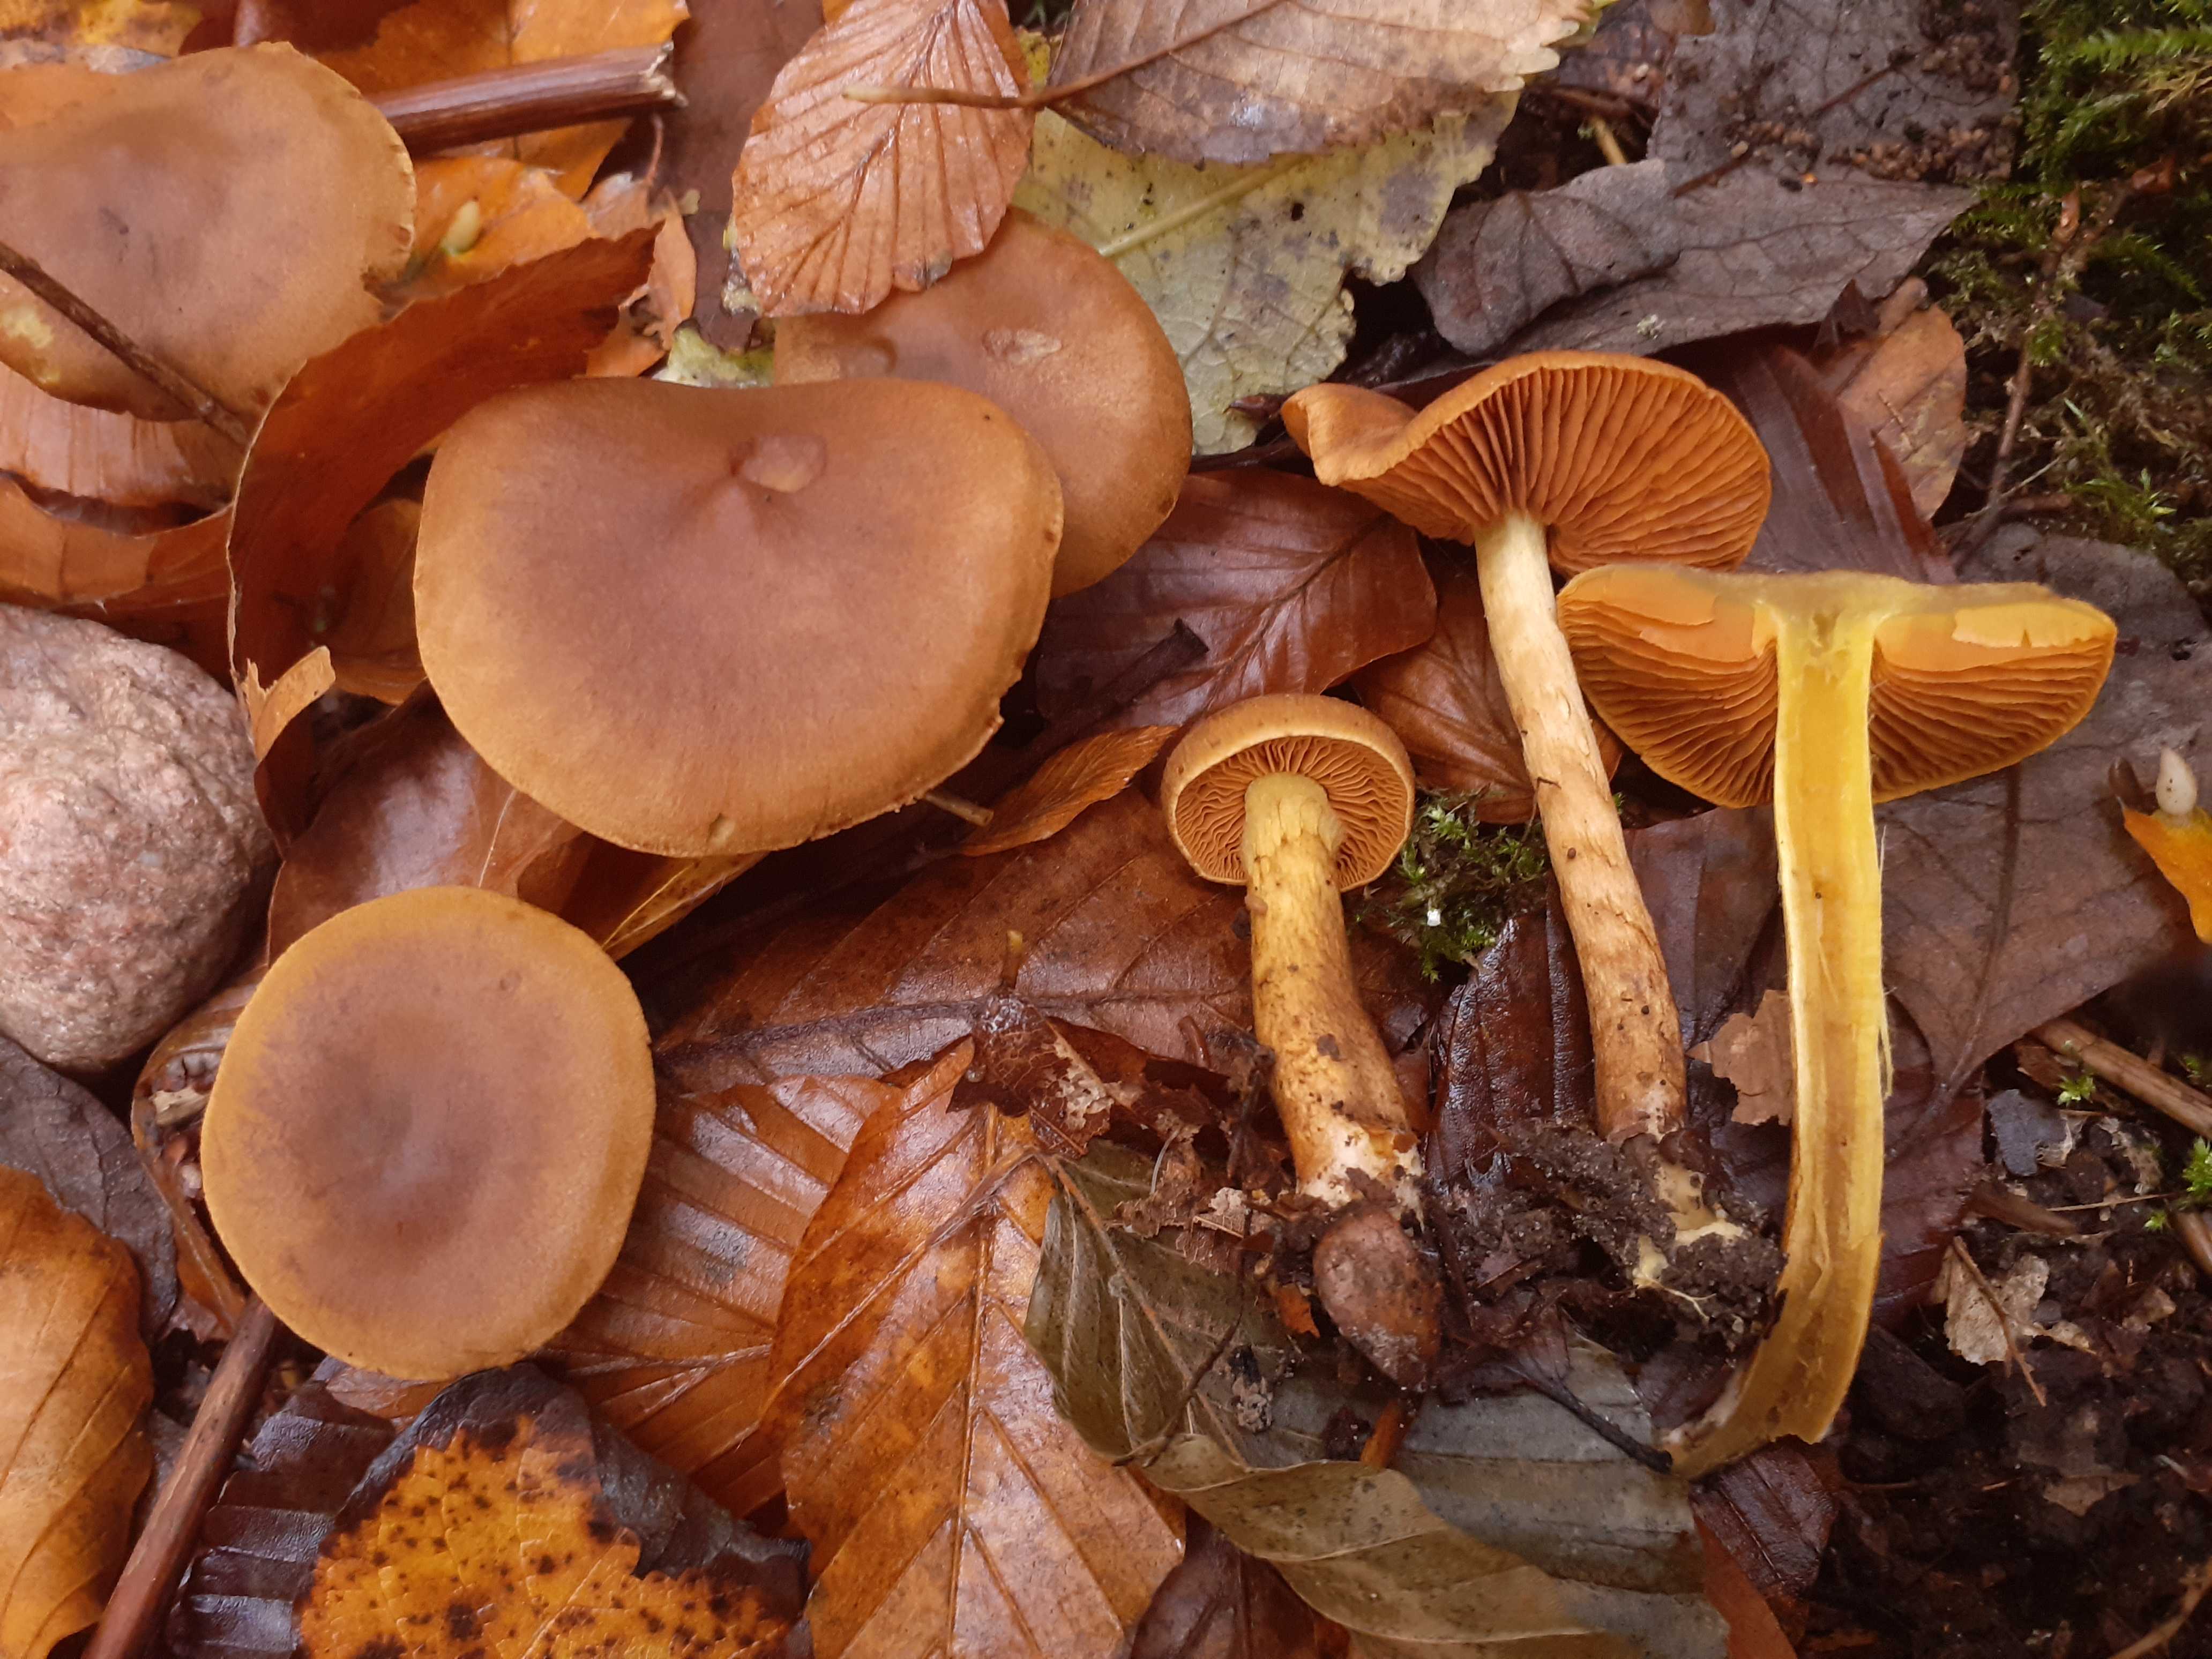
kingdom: Fungi
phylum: Basidiomycota
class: Agaricomycetes
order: Agaricales
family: Cortinariaceae
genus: Cortinarius
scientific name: Cortinarius eleonorae
